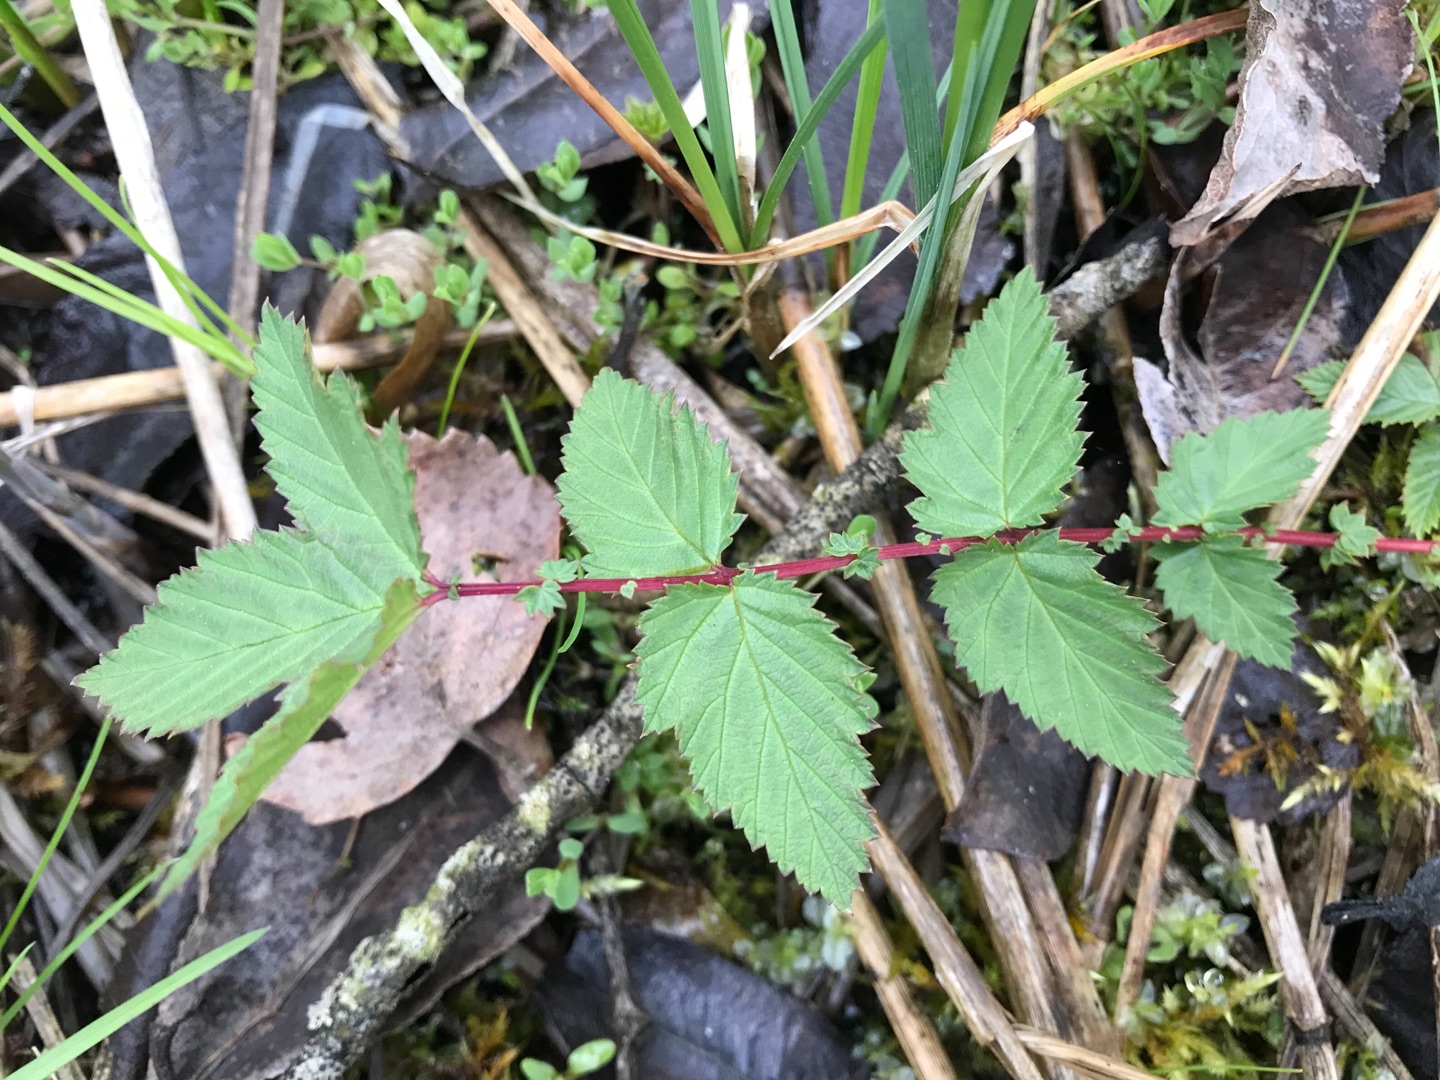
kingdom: Plantae
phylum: Tracheophyta
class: Magnoliopsida
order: Rosales
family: Rosaceae
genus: Filipendula
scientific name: Filipendula ulmaria
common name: Almindelig mjødurt
